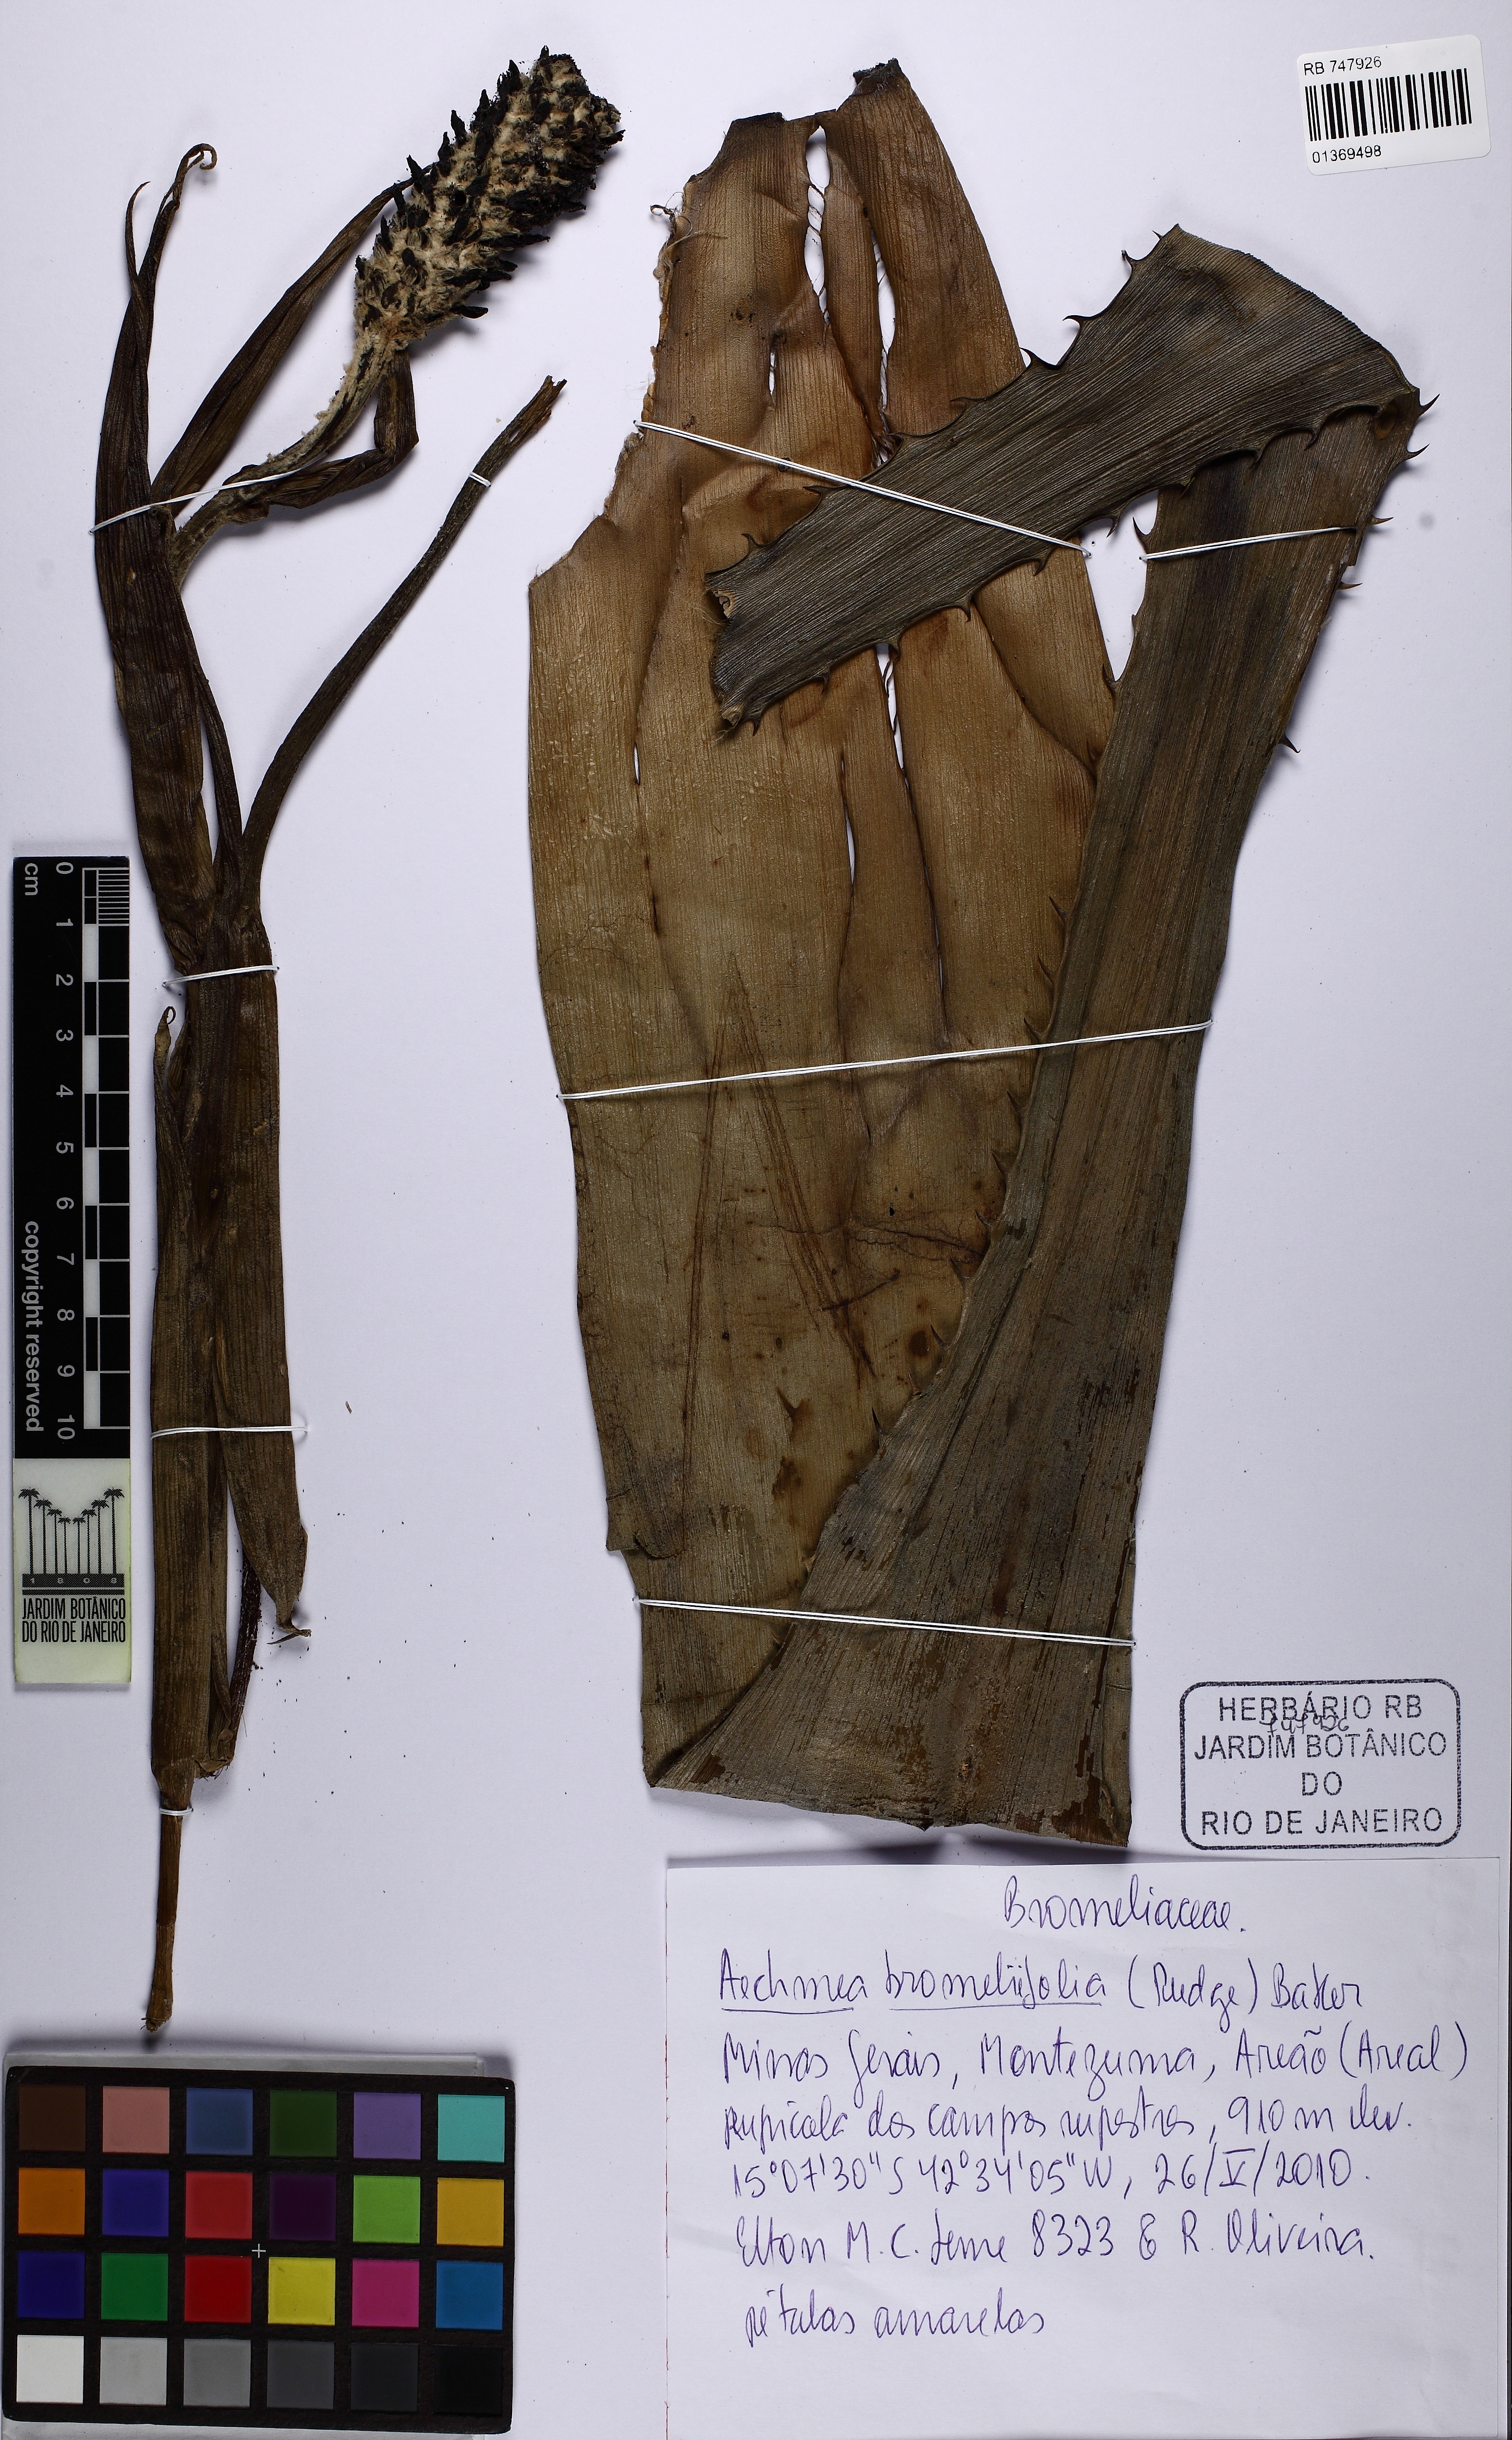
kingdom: Plantae
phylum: Tracheophyta
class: Liliopsida
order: Poales
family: Bromeliaceae
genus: Aechmea
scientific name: Aechmea bromeliifolia
